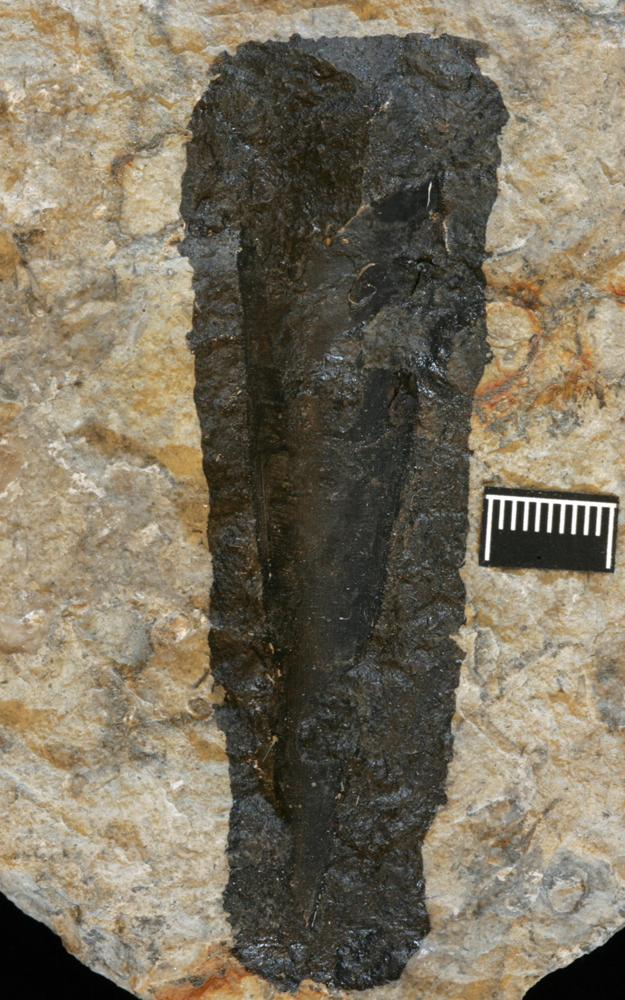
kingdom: Animalia
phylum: Annelida
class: Polychaeta
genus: Hyolithes
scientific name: Hyolithes
